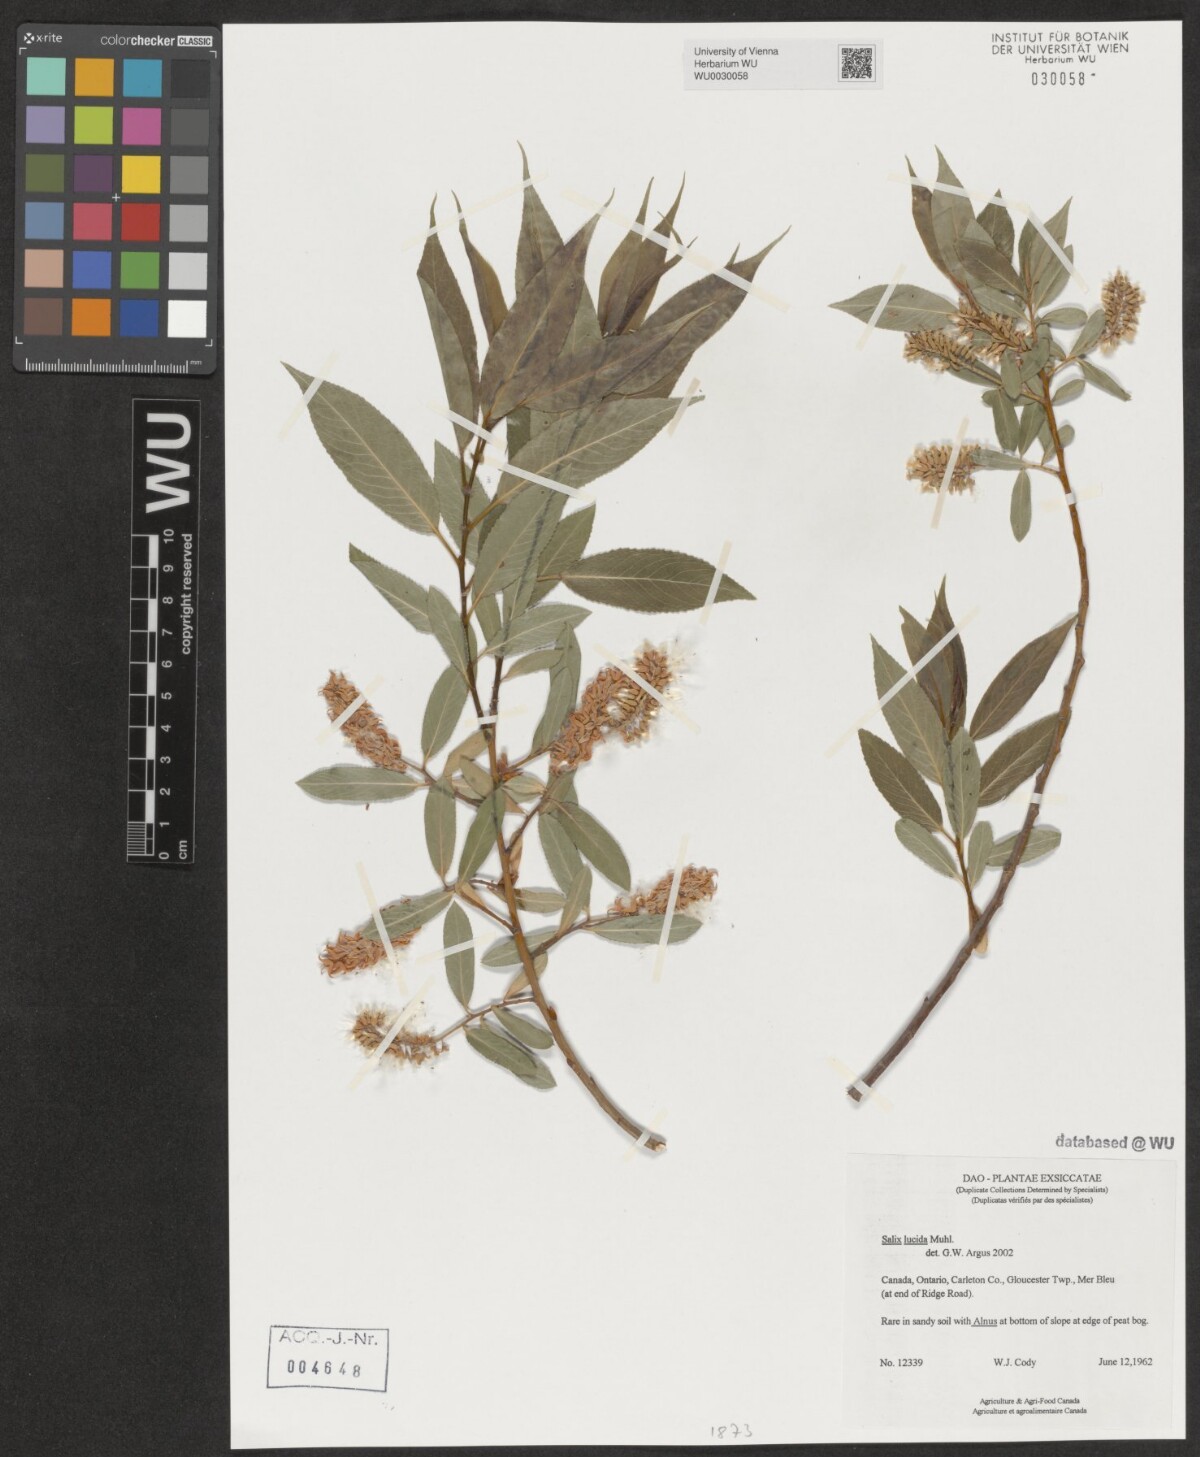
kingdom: Plantae
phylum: Tracheophyta
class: Magnoliopsida
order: Malpighiales
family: Salicaceae
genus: Salix
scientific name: Salix lucida
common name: Shining willow
